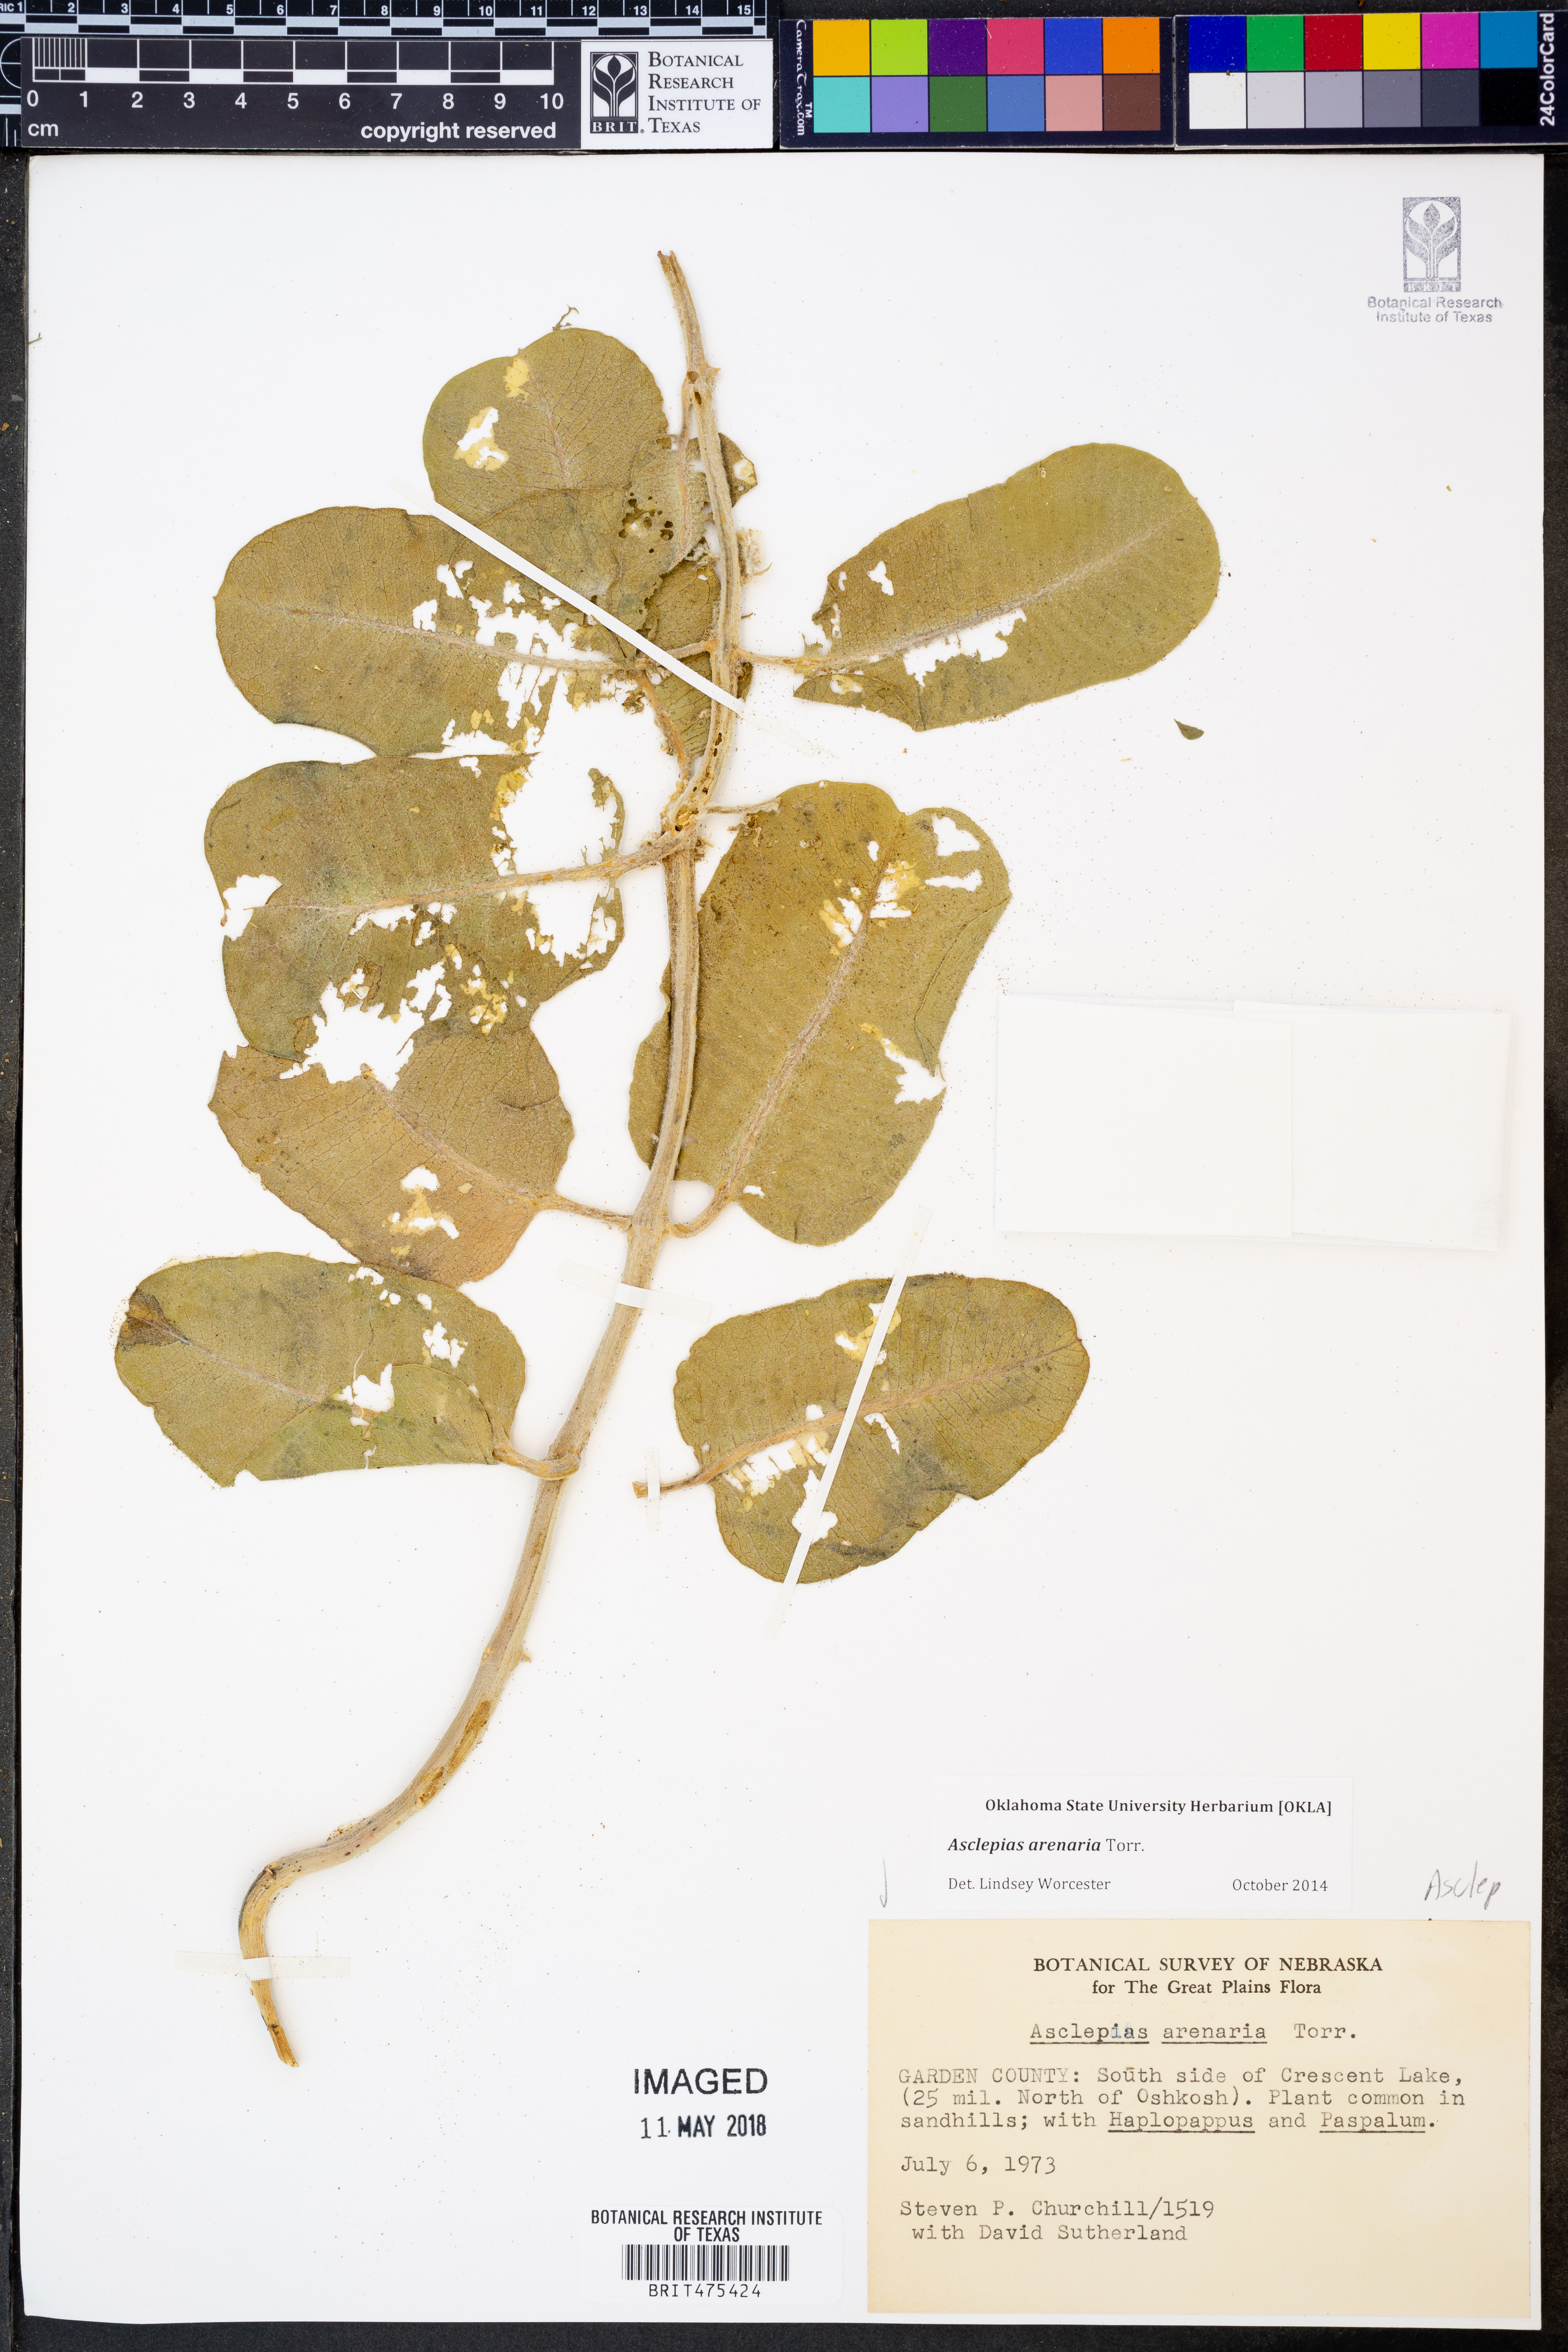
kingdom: Plantae
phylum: Tracheophyta
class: Magnoliopsida
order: Gentianales
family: Apocynaceae
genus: Asclepias
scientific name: Asclepias arenaria
